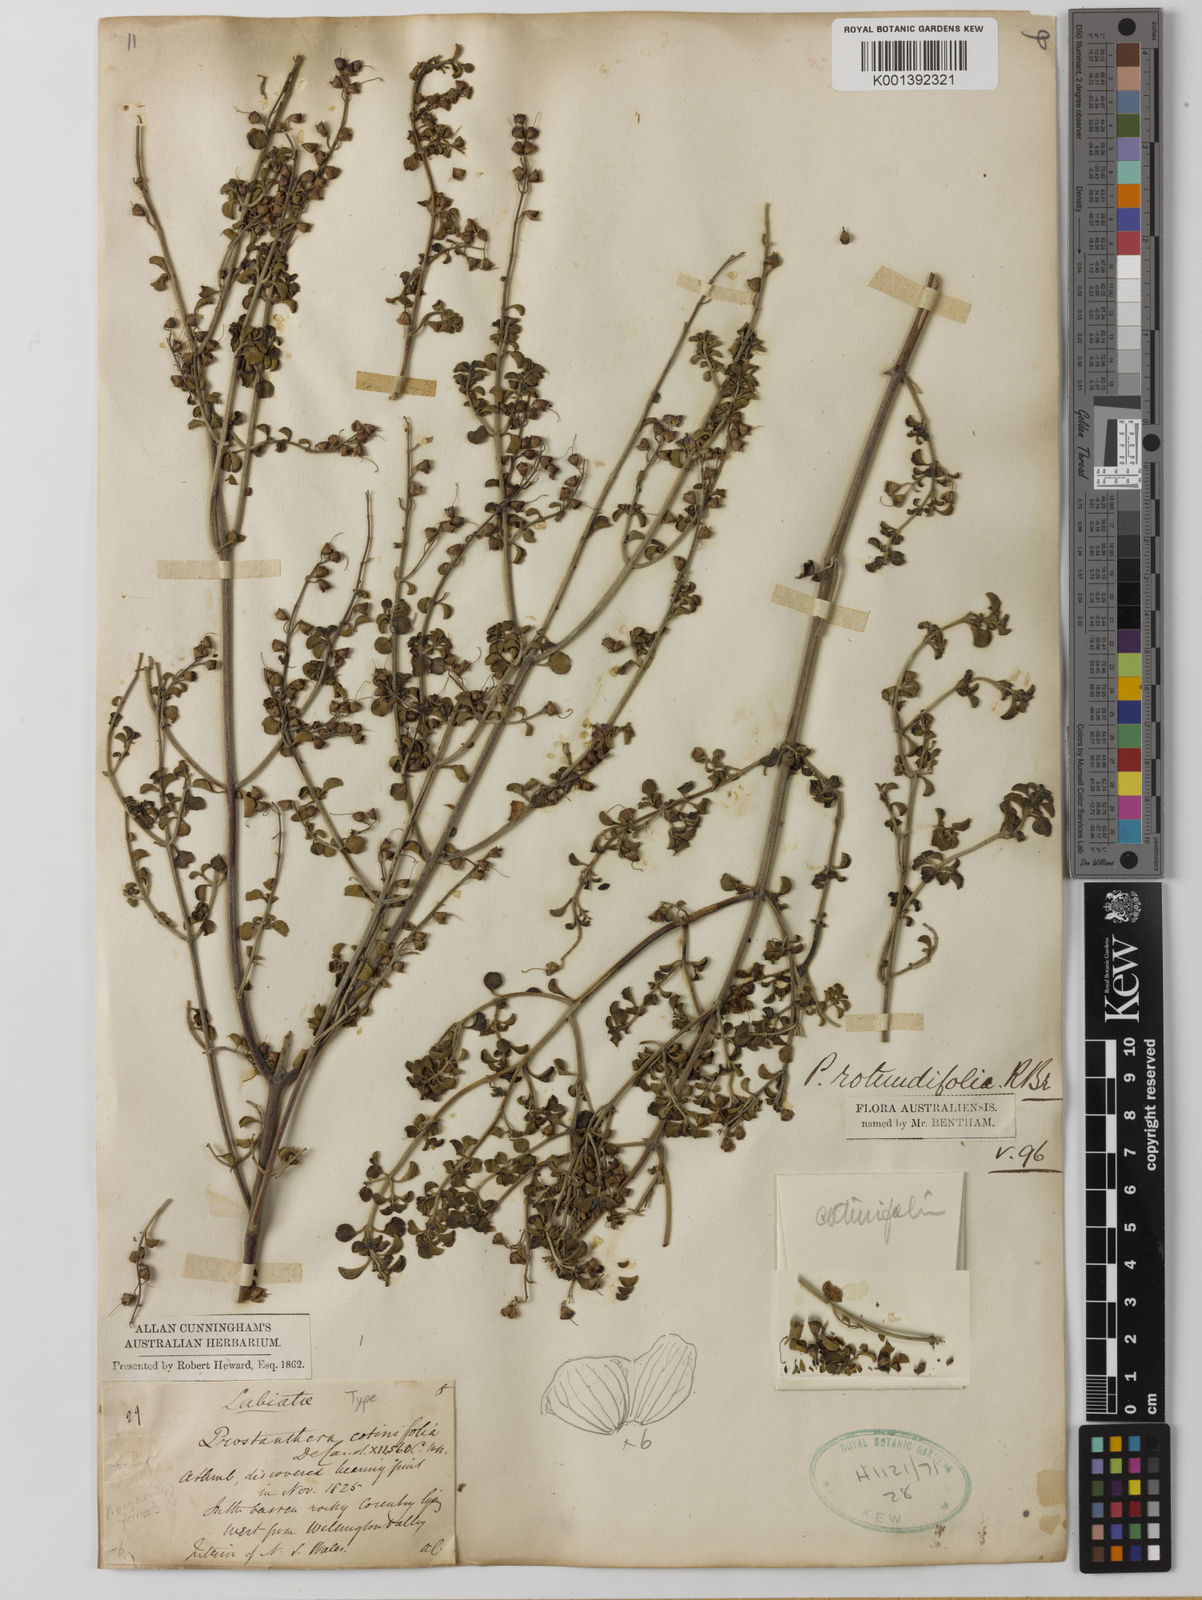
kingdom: Plantae
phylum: Tracheophyta
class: Magnoliopsida
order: Lamiales
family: Lamiaceae
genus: Prostanthera
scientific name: Prostanthera rotundifolia
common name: Round-leaf mintbush
